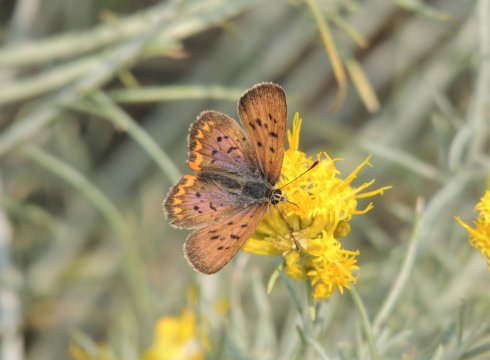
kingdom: Animalia
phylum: Arthropoda
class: Insecta
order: Lepidoptera
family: Sesiidae
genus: Sesia
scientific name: Sesia Lycaena helloides
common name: Purplish Copper
